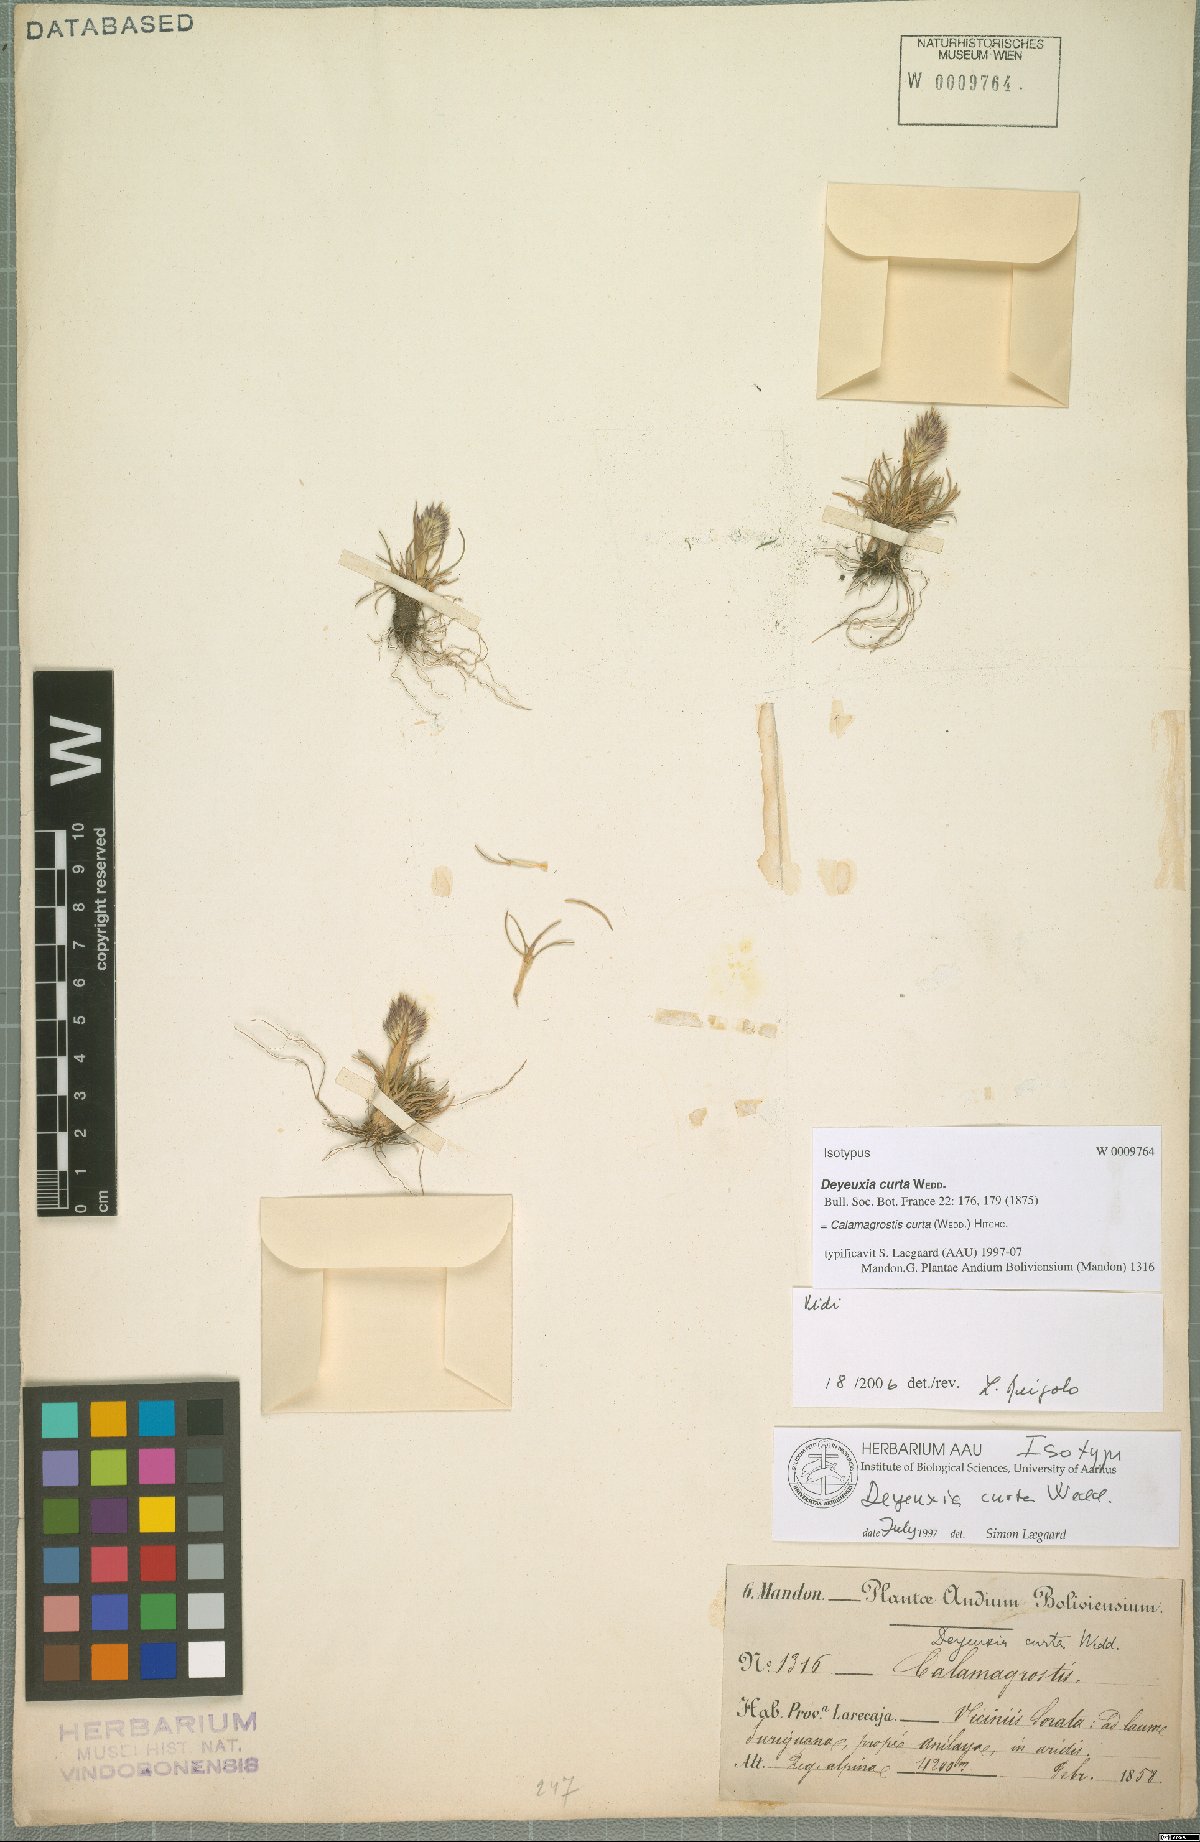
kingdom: Plantae
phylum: Tracheophyta
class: Liliopsida
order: Poales
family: Poaceae
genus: Cinnagrostis
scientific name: Cinnagrostis curta
